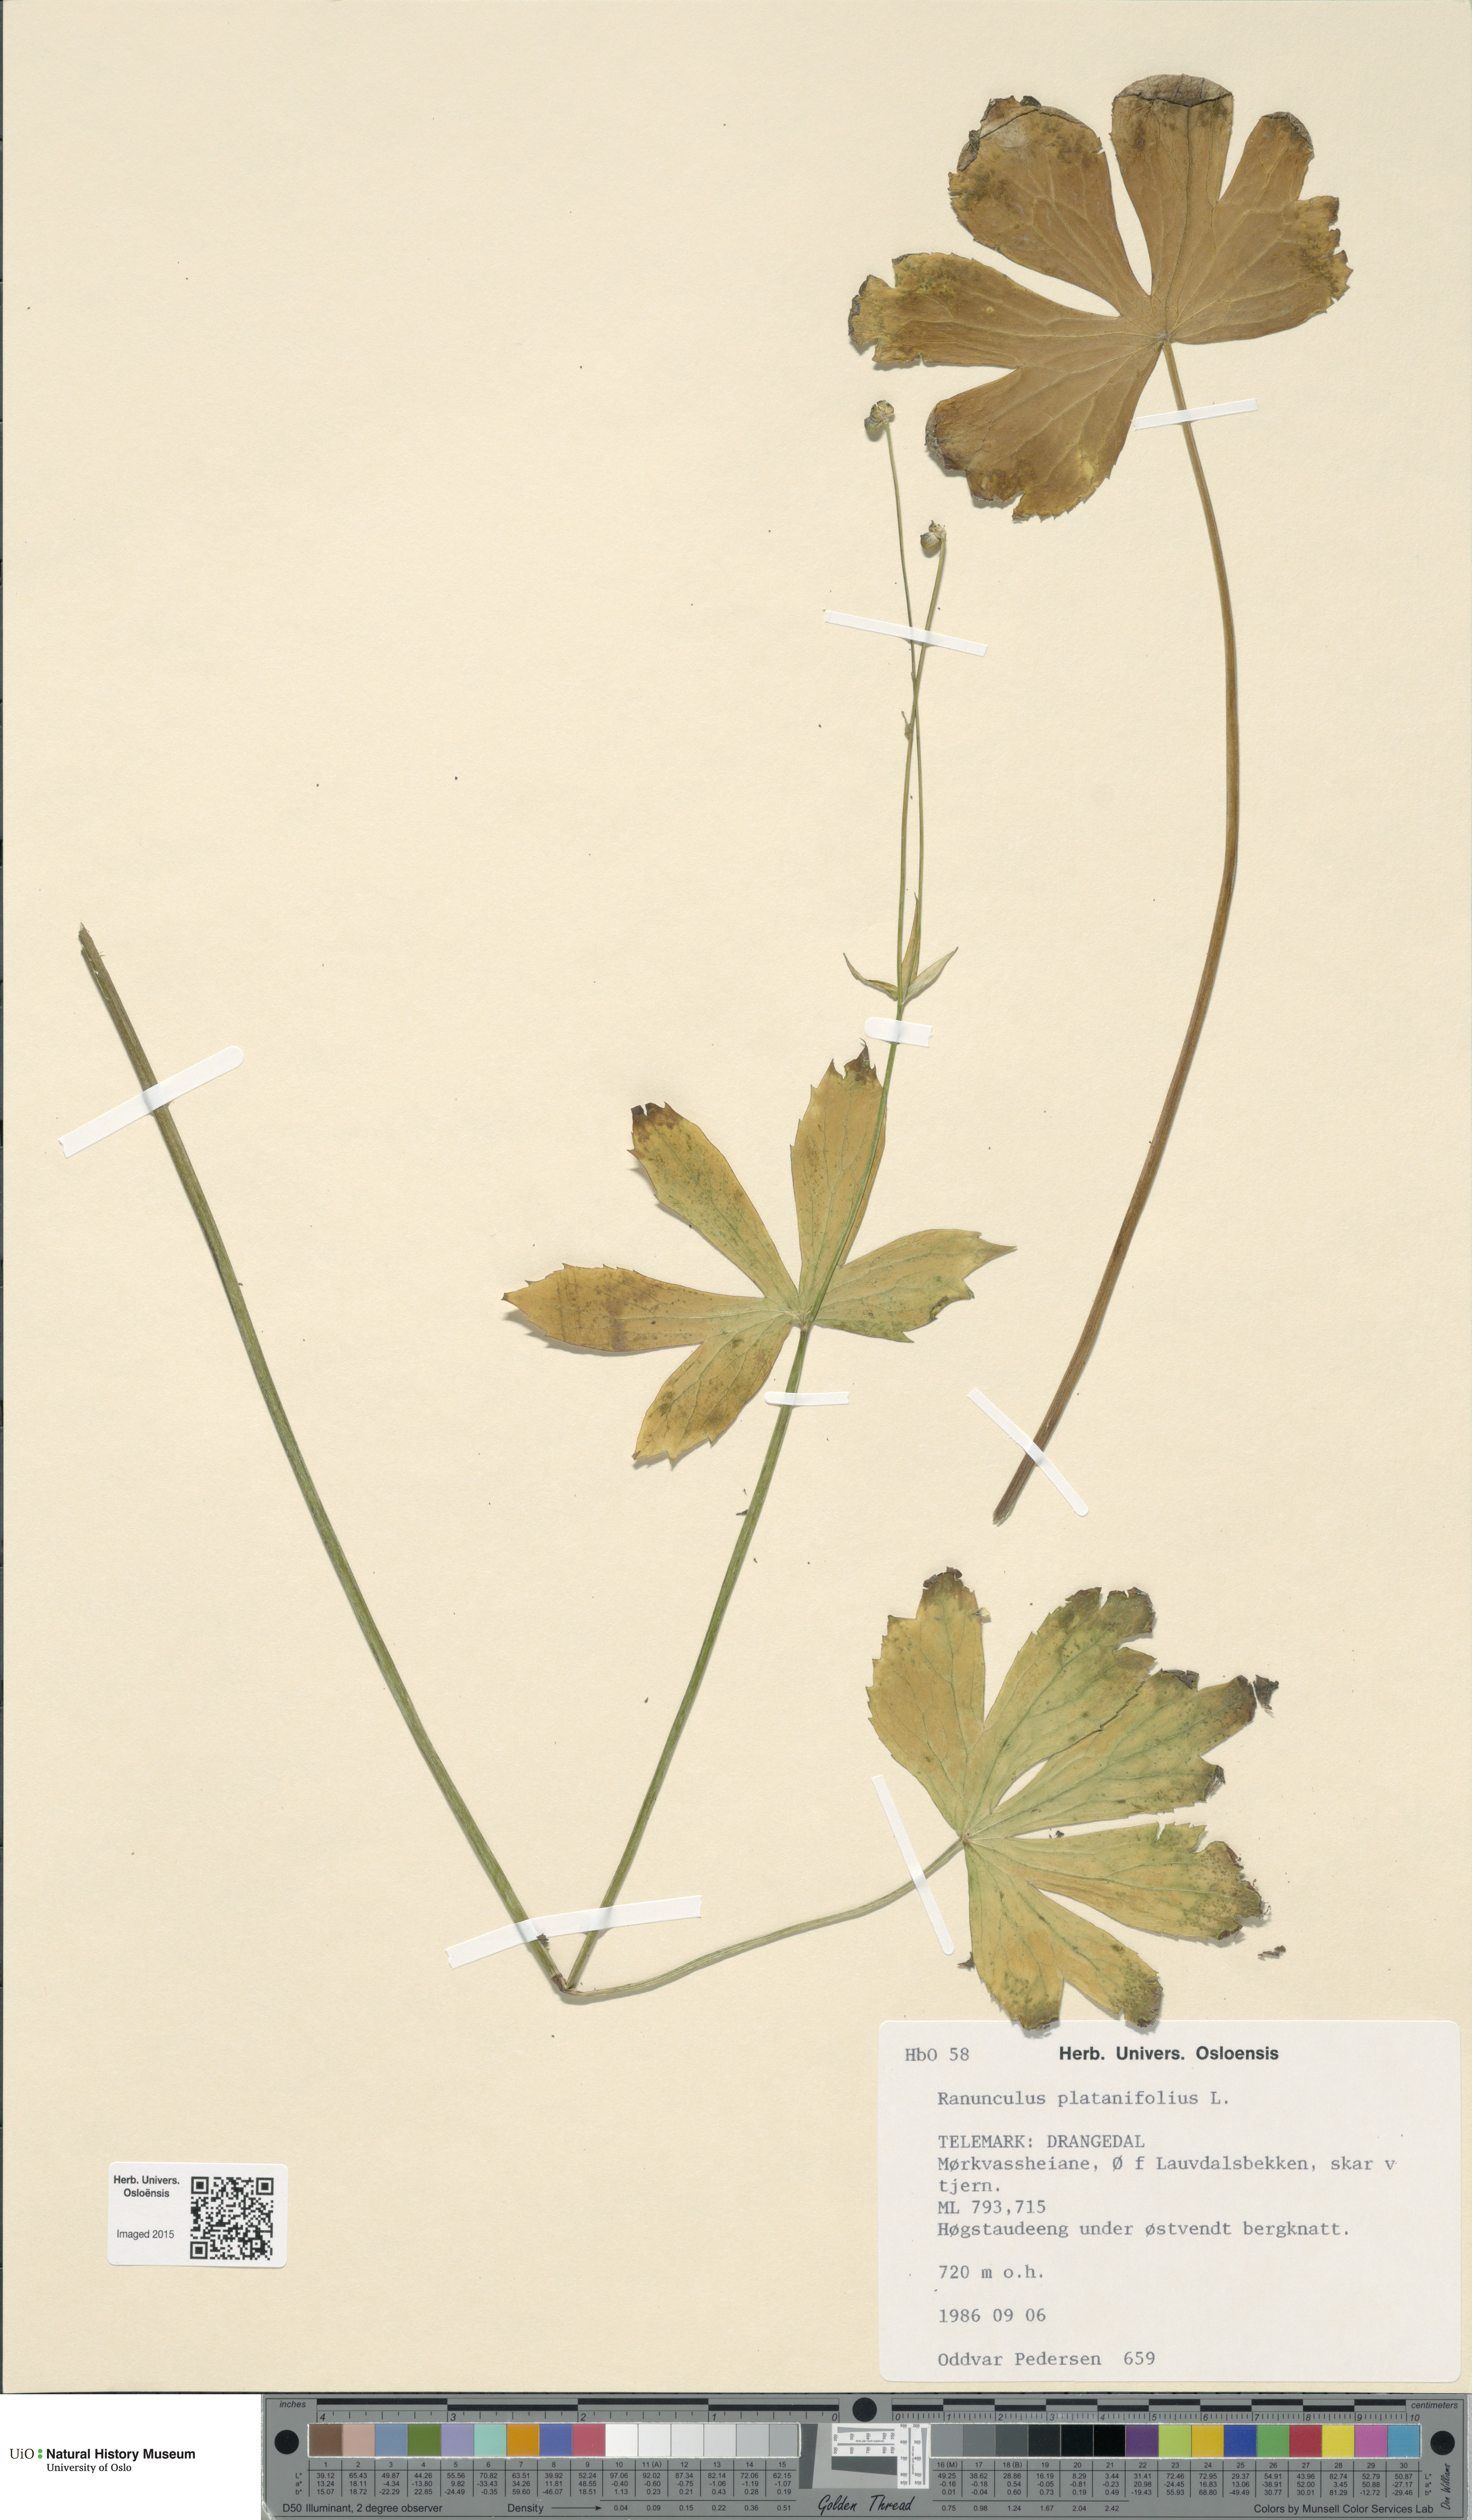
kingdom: Plantae
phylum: Tracheophyta
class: Magnoliopsida
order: Ranunculales
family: Ranunculaceae
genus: Ranunculus
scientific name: Ranunculus platanifolius
